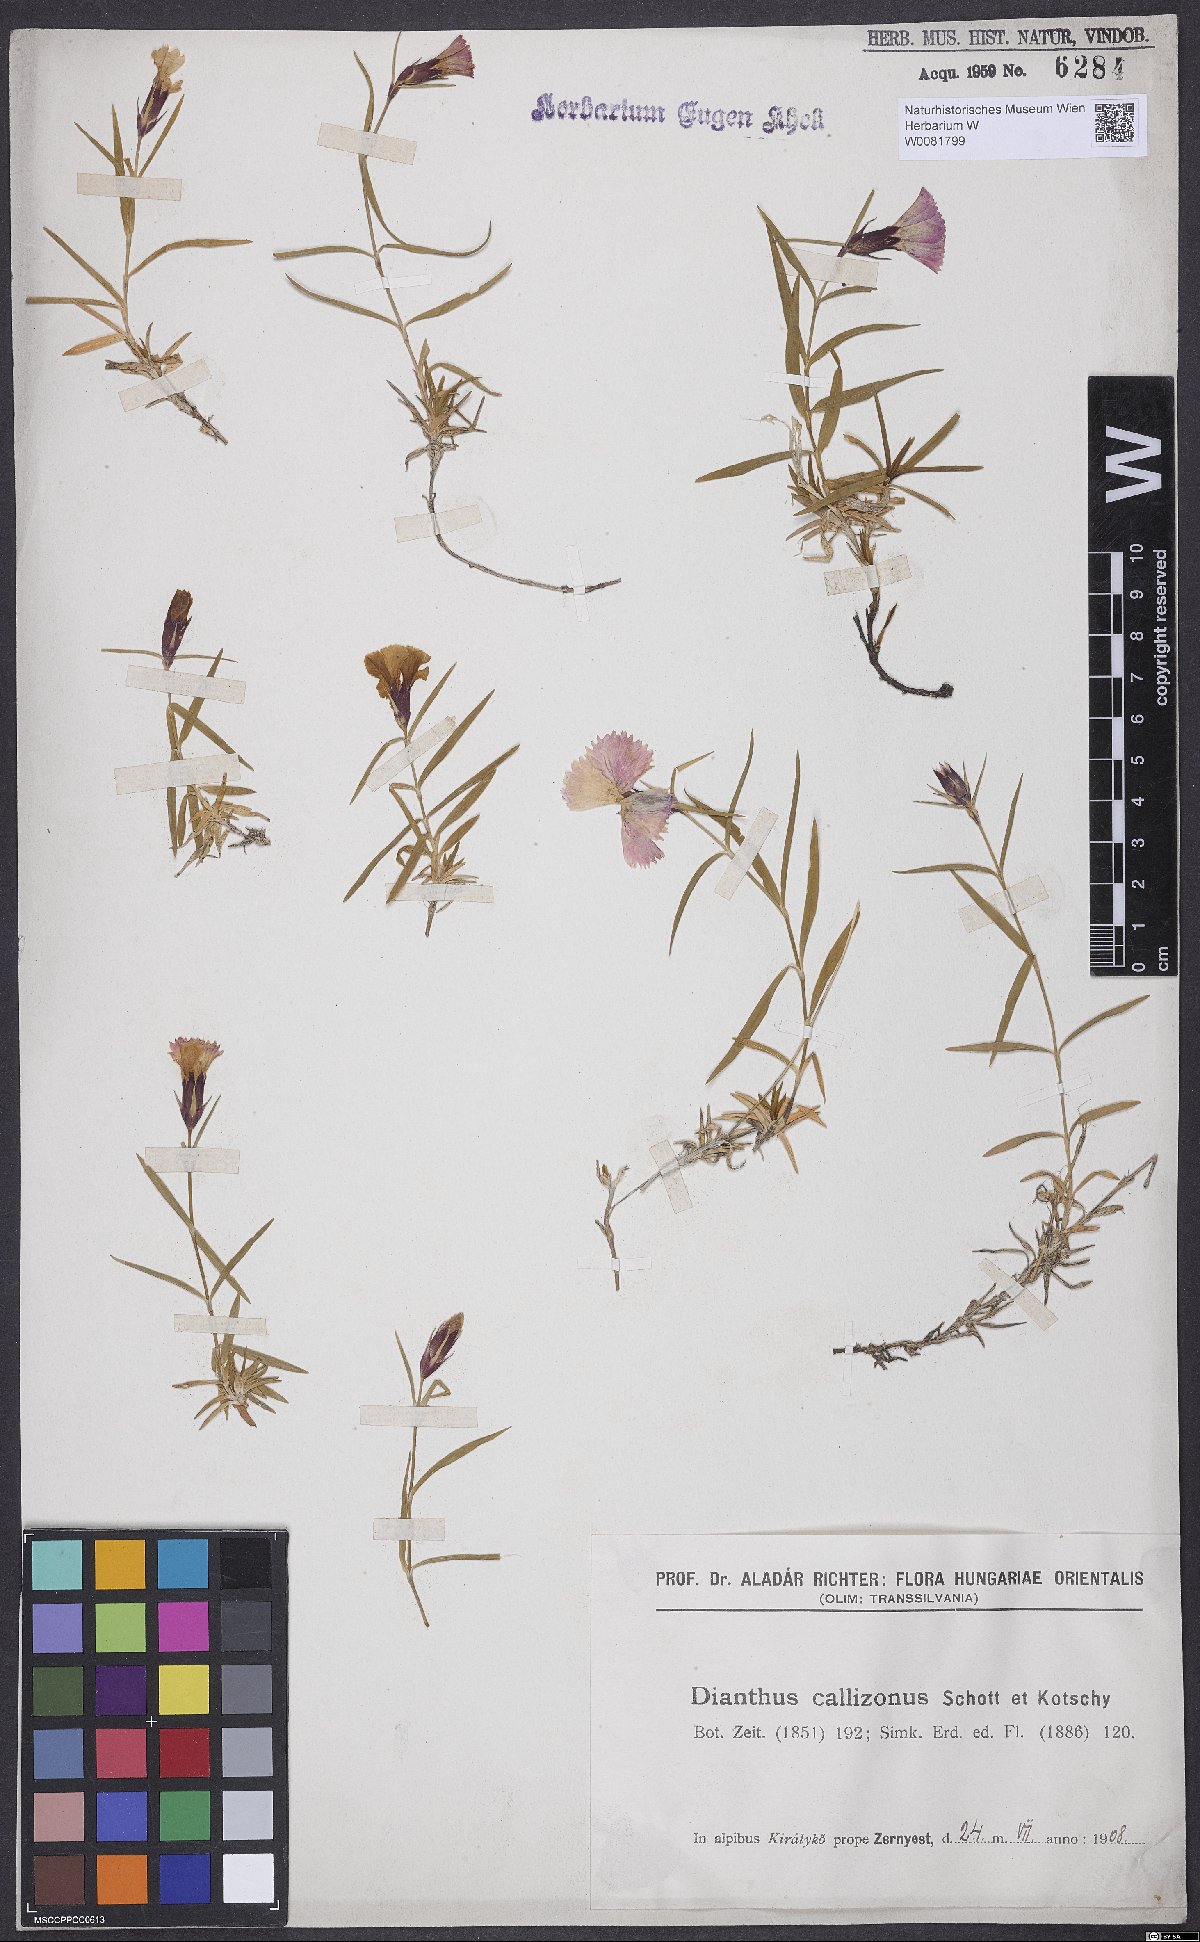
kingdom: Plantae
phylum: Tracheophyta
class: Magnoliopsida
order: Caryophyllales
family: Caryophyllaceae
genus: Dianthus
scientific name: Dianthus callizonus
